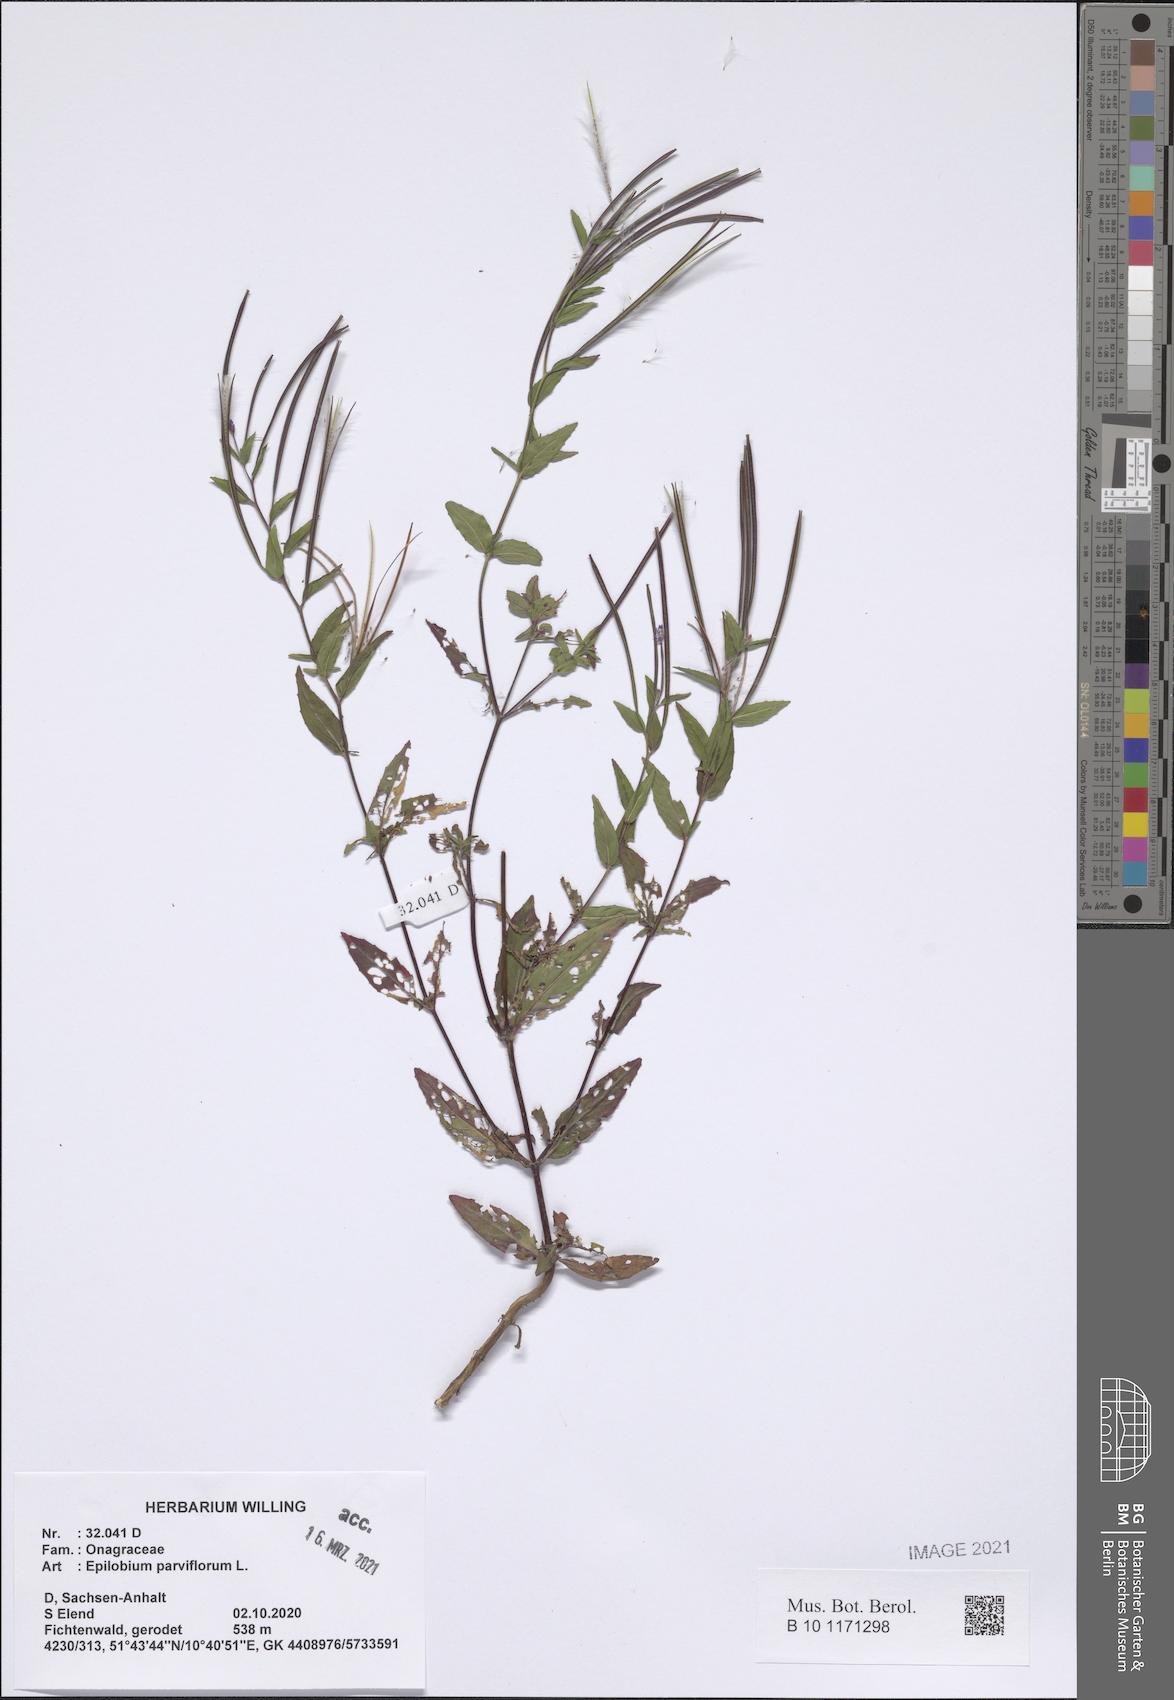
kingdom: Plantae
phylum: Tracheophyta
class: Magnoliopsida
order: Myrtales
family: Onagraceae
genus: Epilobium
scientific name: Epilobium parviflorum
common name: Hoary willowherb
